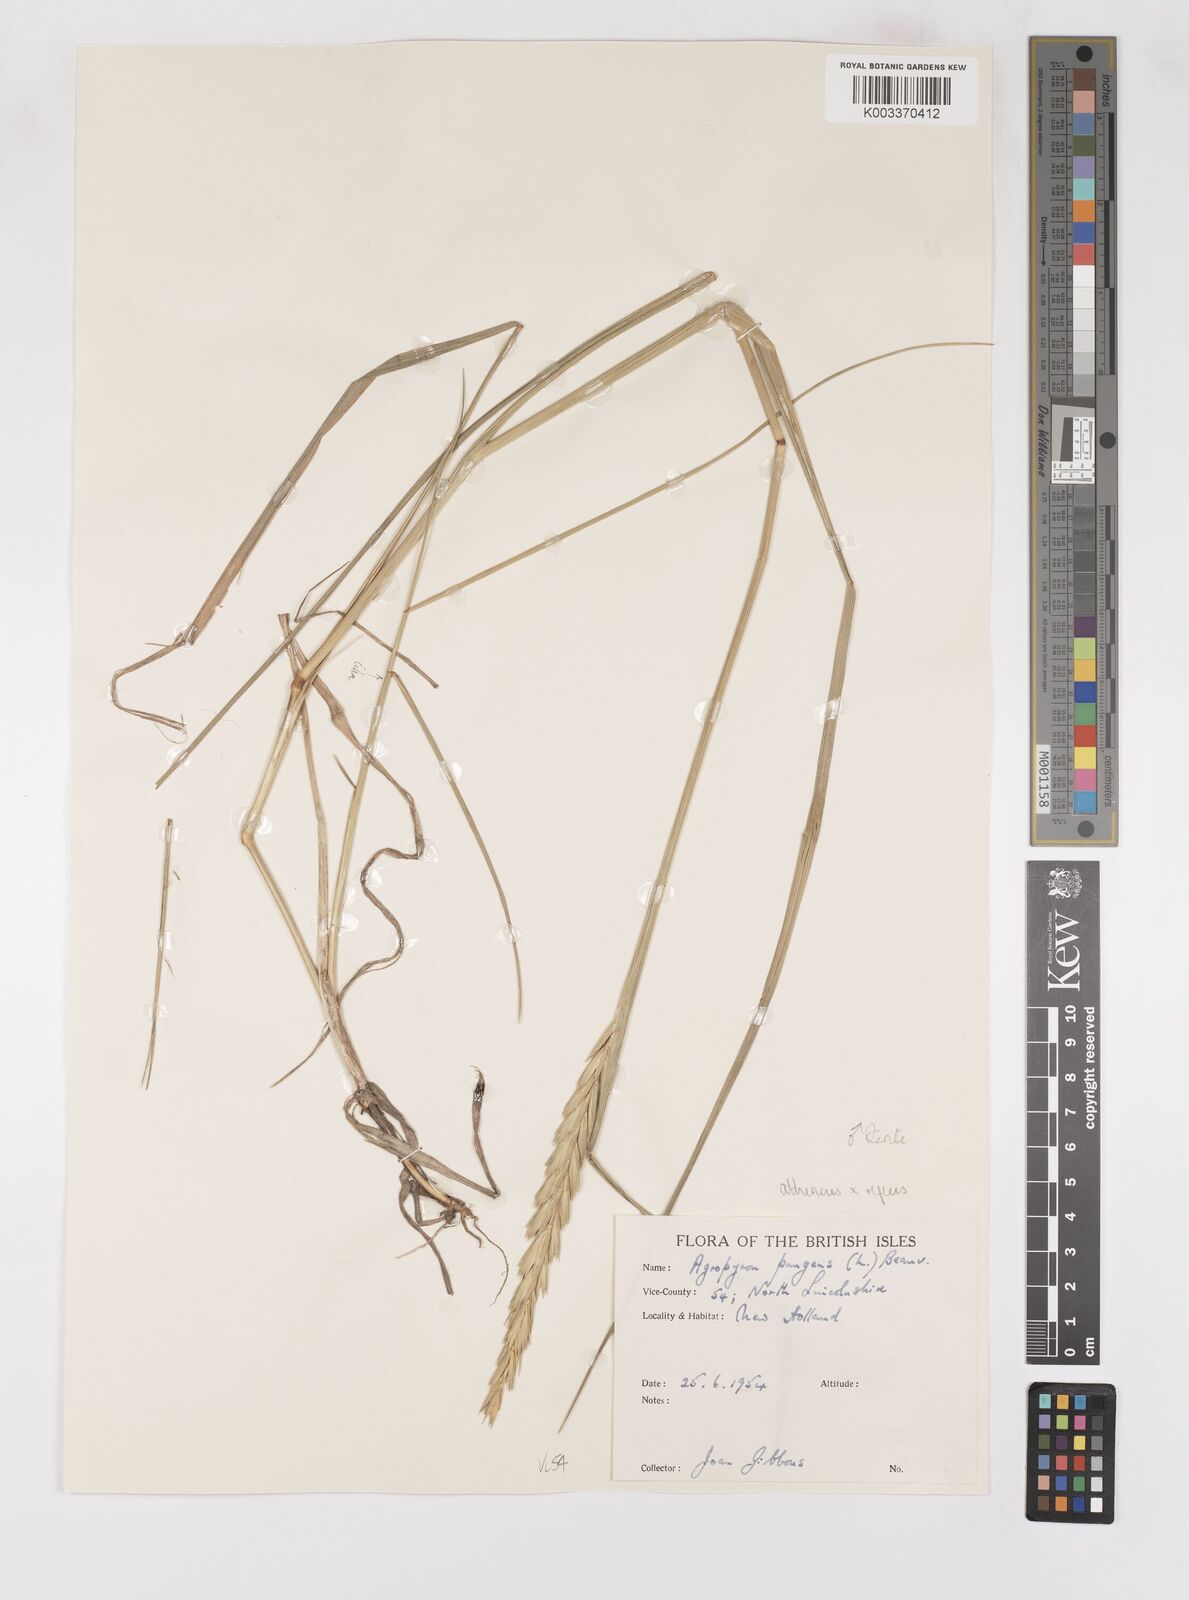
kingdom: Plantae
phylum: Tracheophyta
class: Liliopsida
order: Poales
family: Poaceae
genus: Elymus
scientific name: Elymus oliveri
